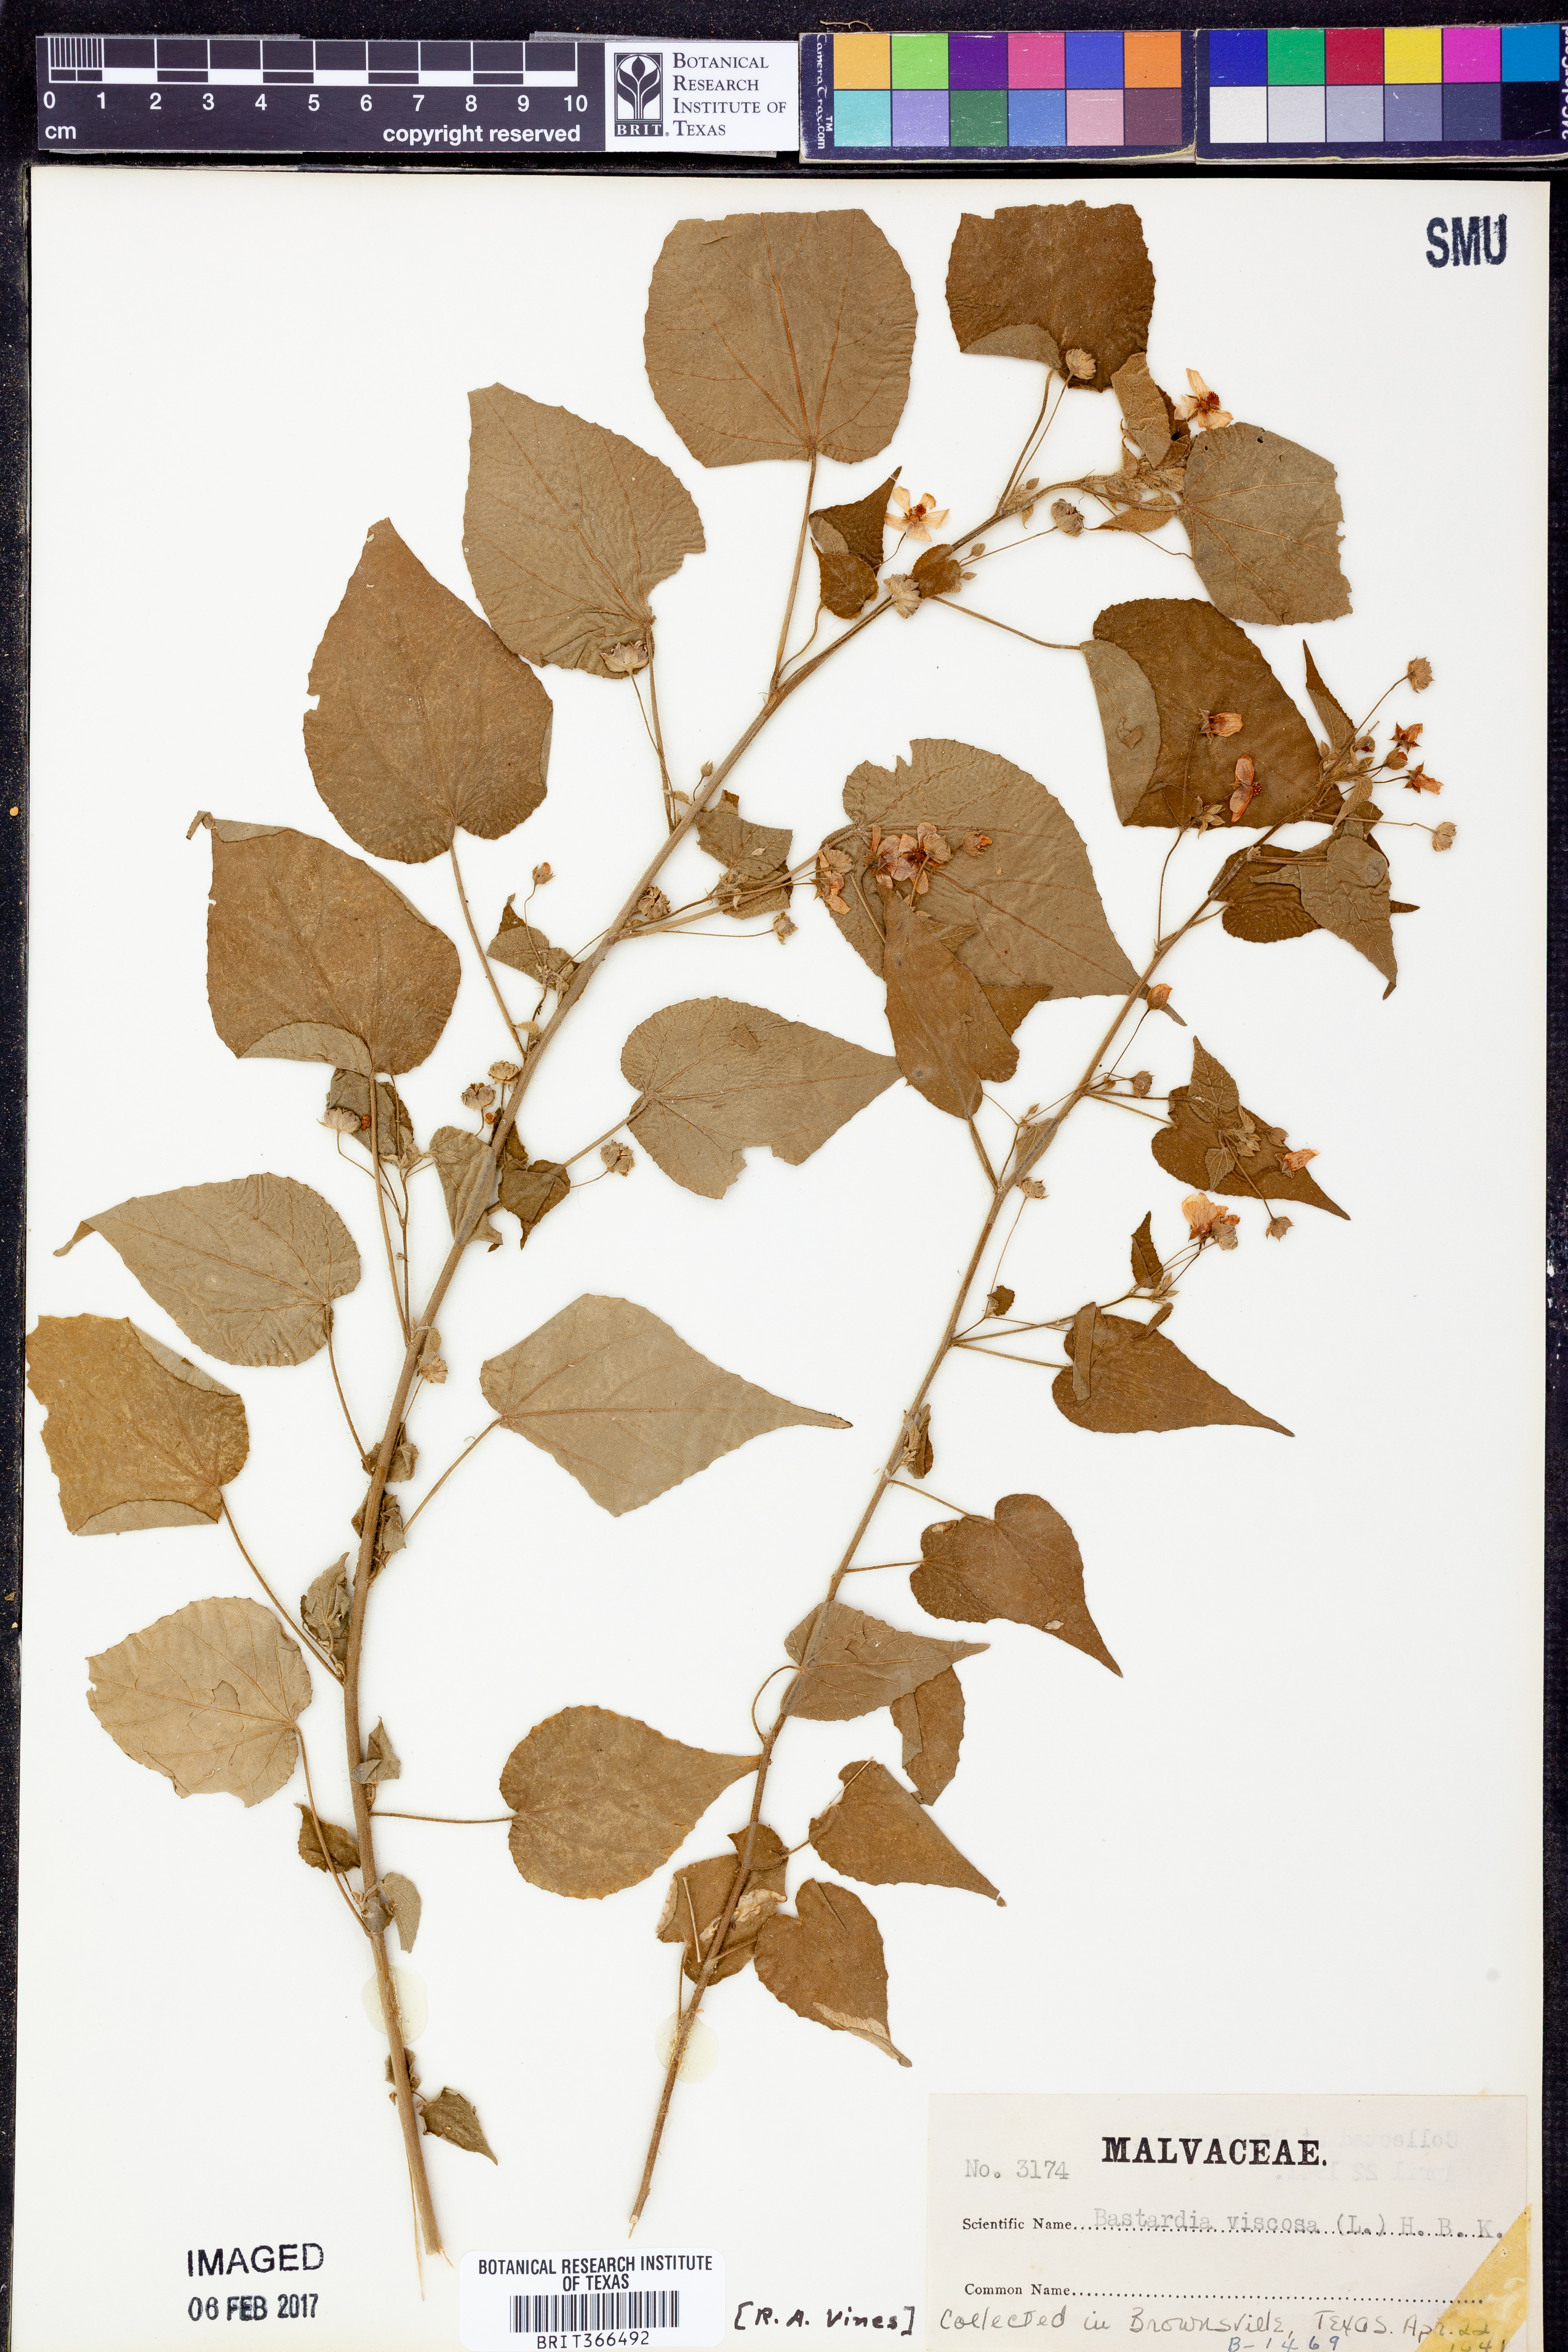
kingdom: Plantae
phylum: Tracheophyta
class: Magnoliopsida
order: Malvales
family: Malvaceae
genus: Abutilon
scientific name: Abutilon viscosum
